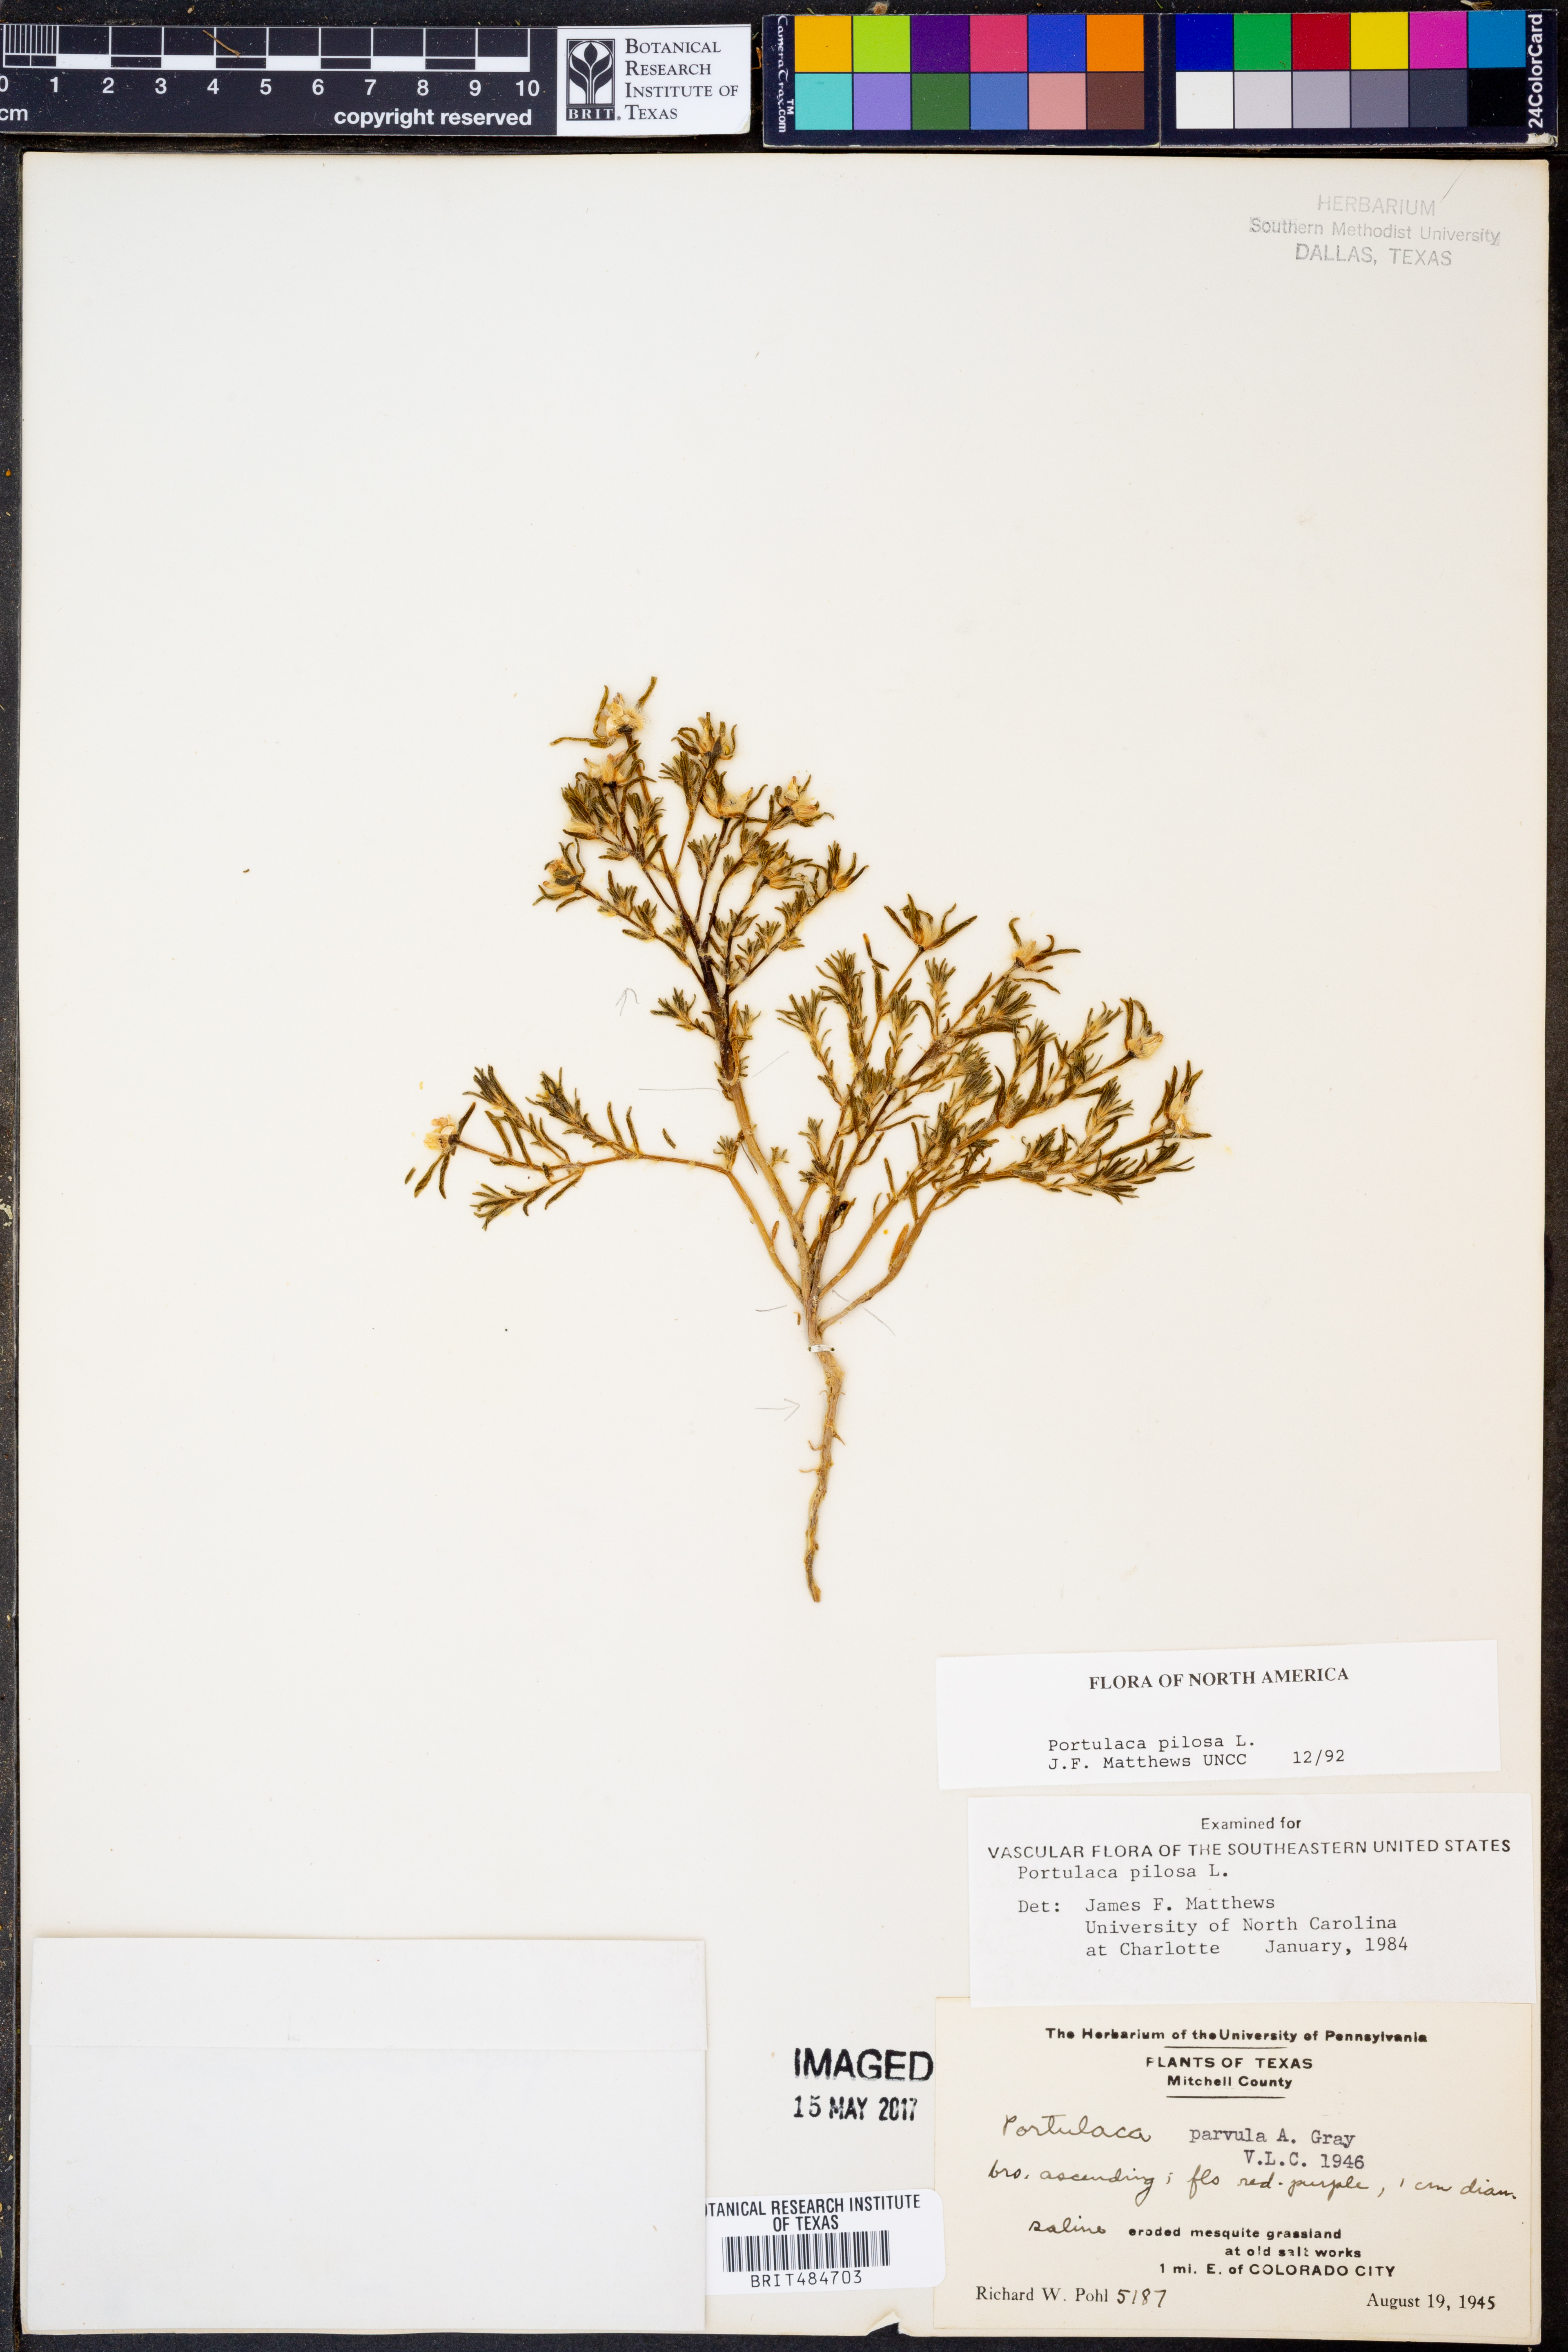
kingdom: Plantae
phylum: Tracheophyta
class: Magnoliopsida
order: Caryophyllales
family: Portulacaceae
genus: Portulaca
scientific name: Portulaca pilosa
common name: Kiss me quick
